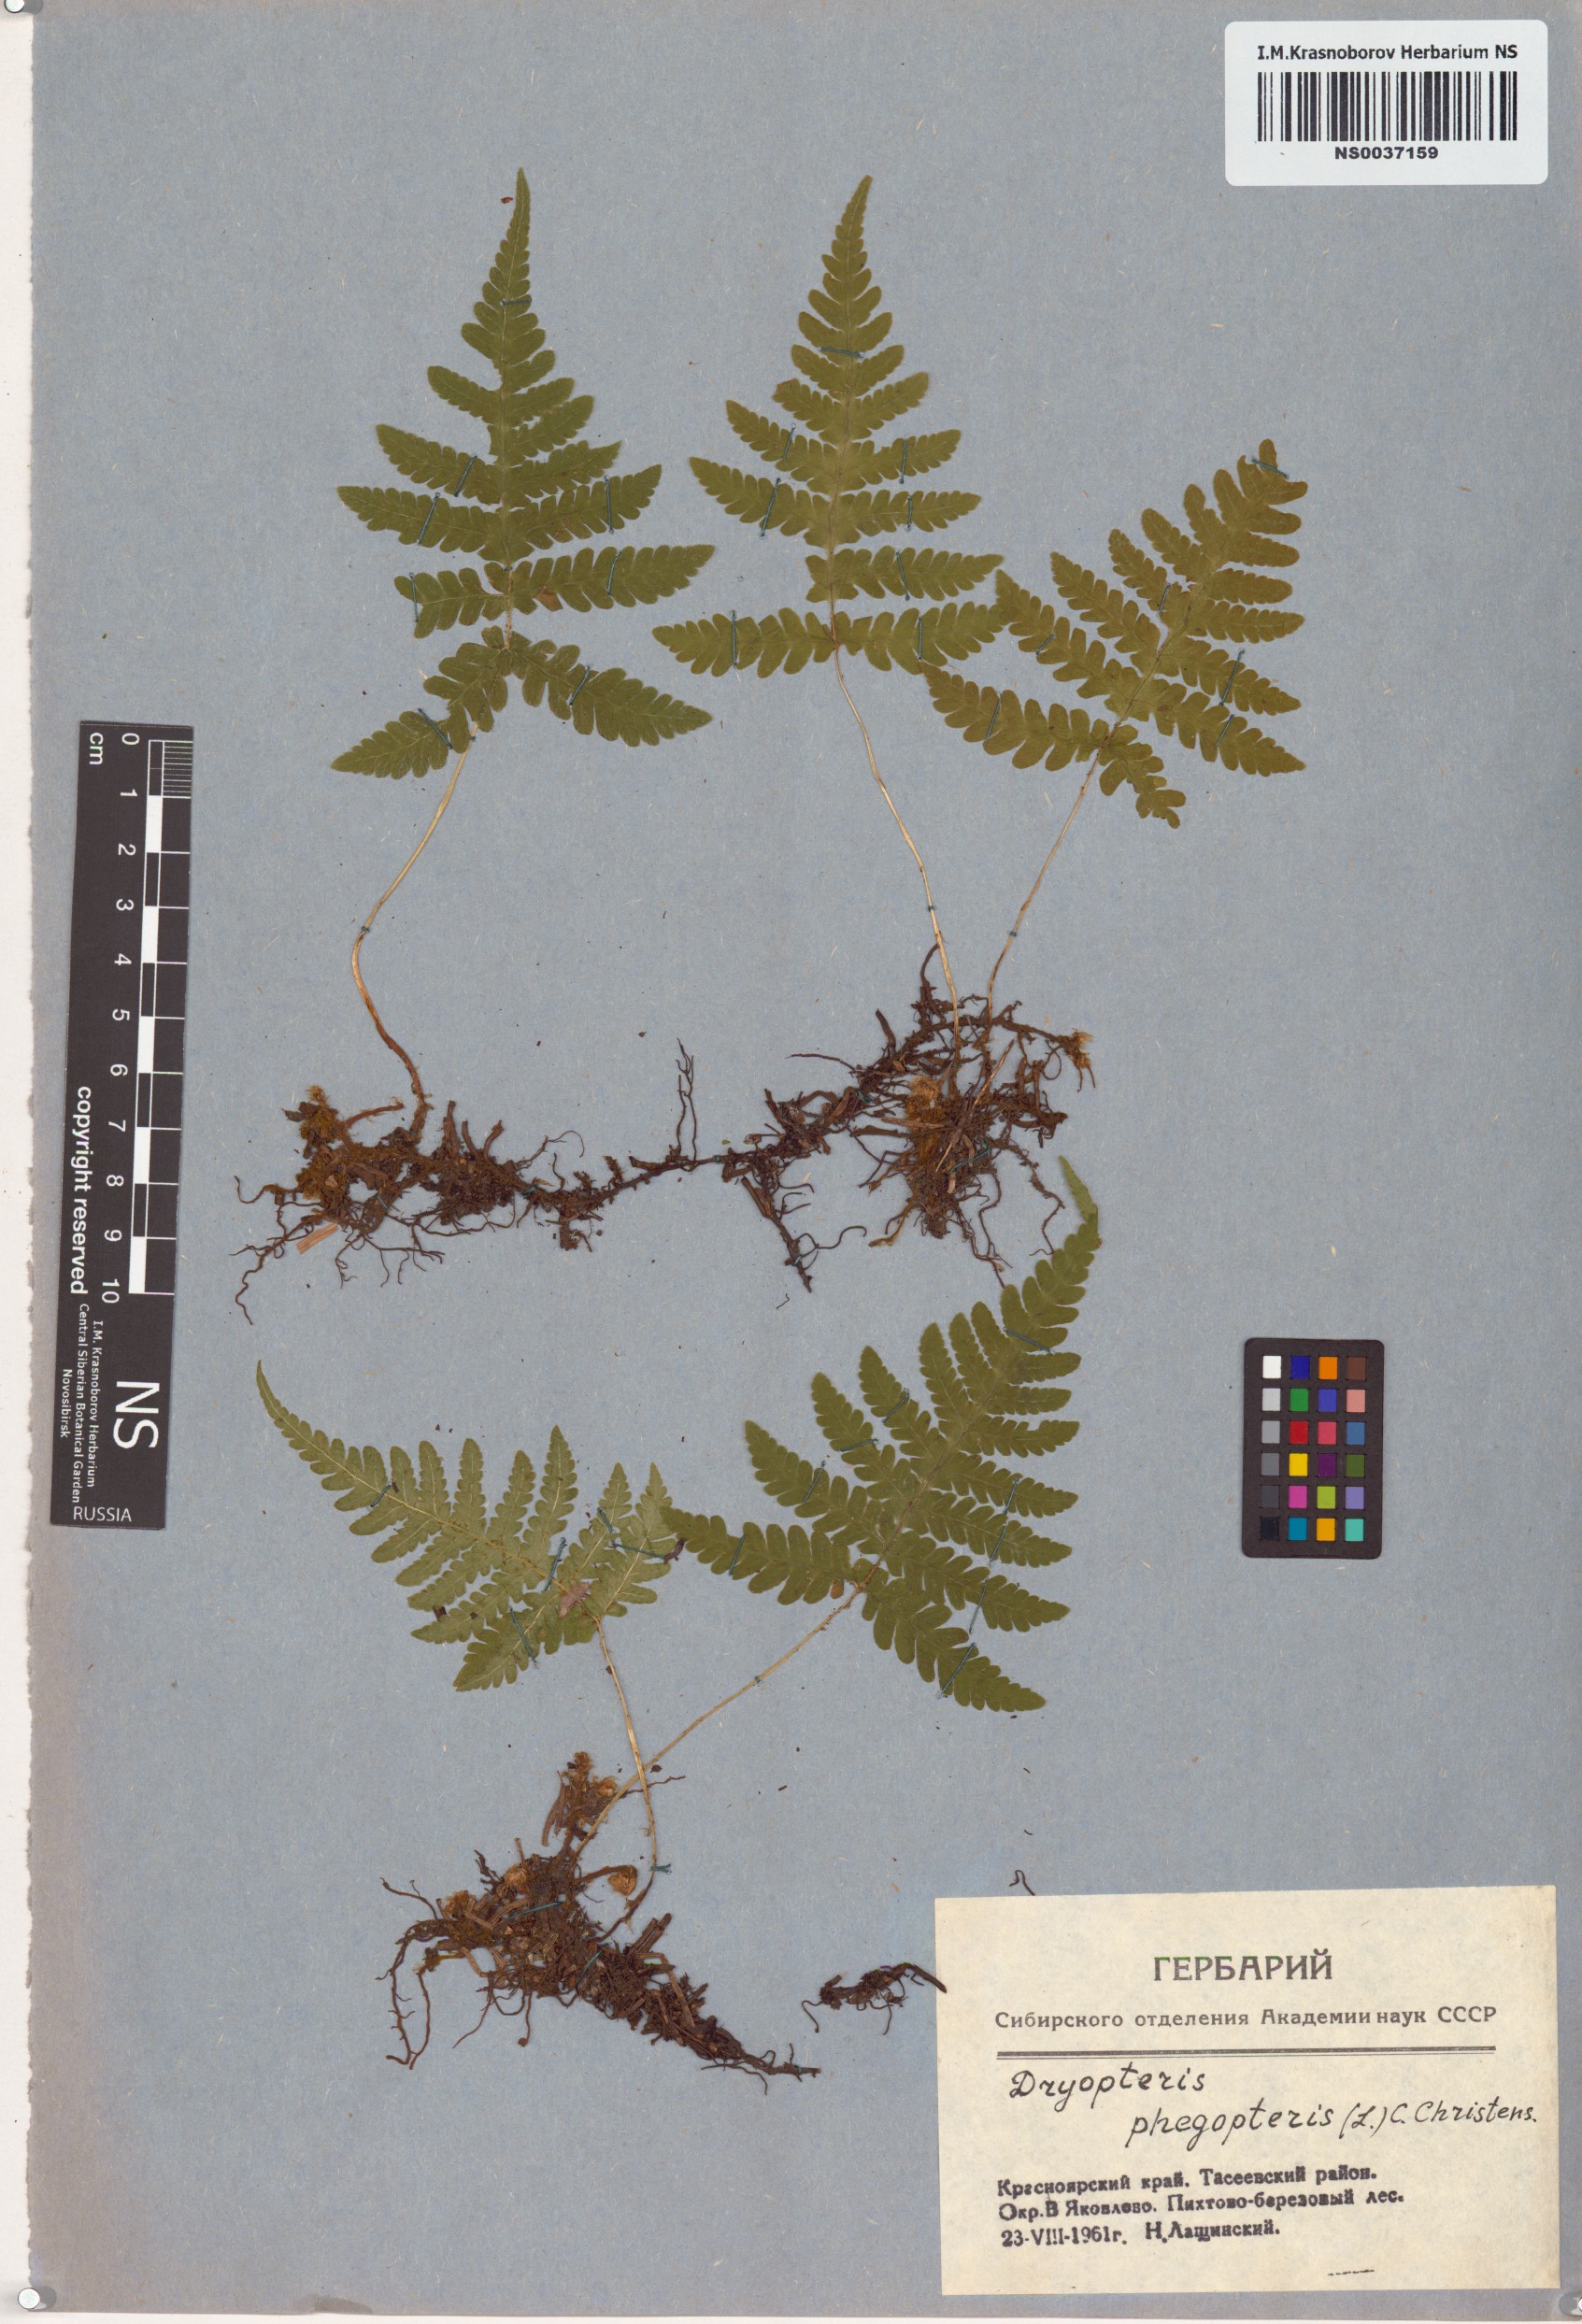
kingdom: Plantae
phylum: Tracheophyta
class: Polypodiopsida
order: Polypodiales
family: Thelypteridaceae
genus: Phegopteris
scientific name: Phegopteris connectilis
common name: Beech fern
